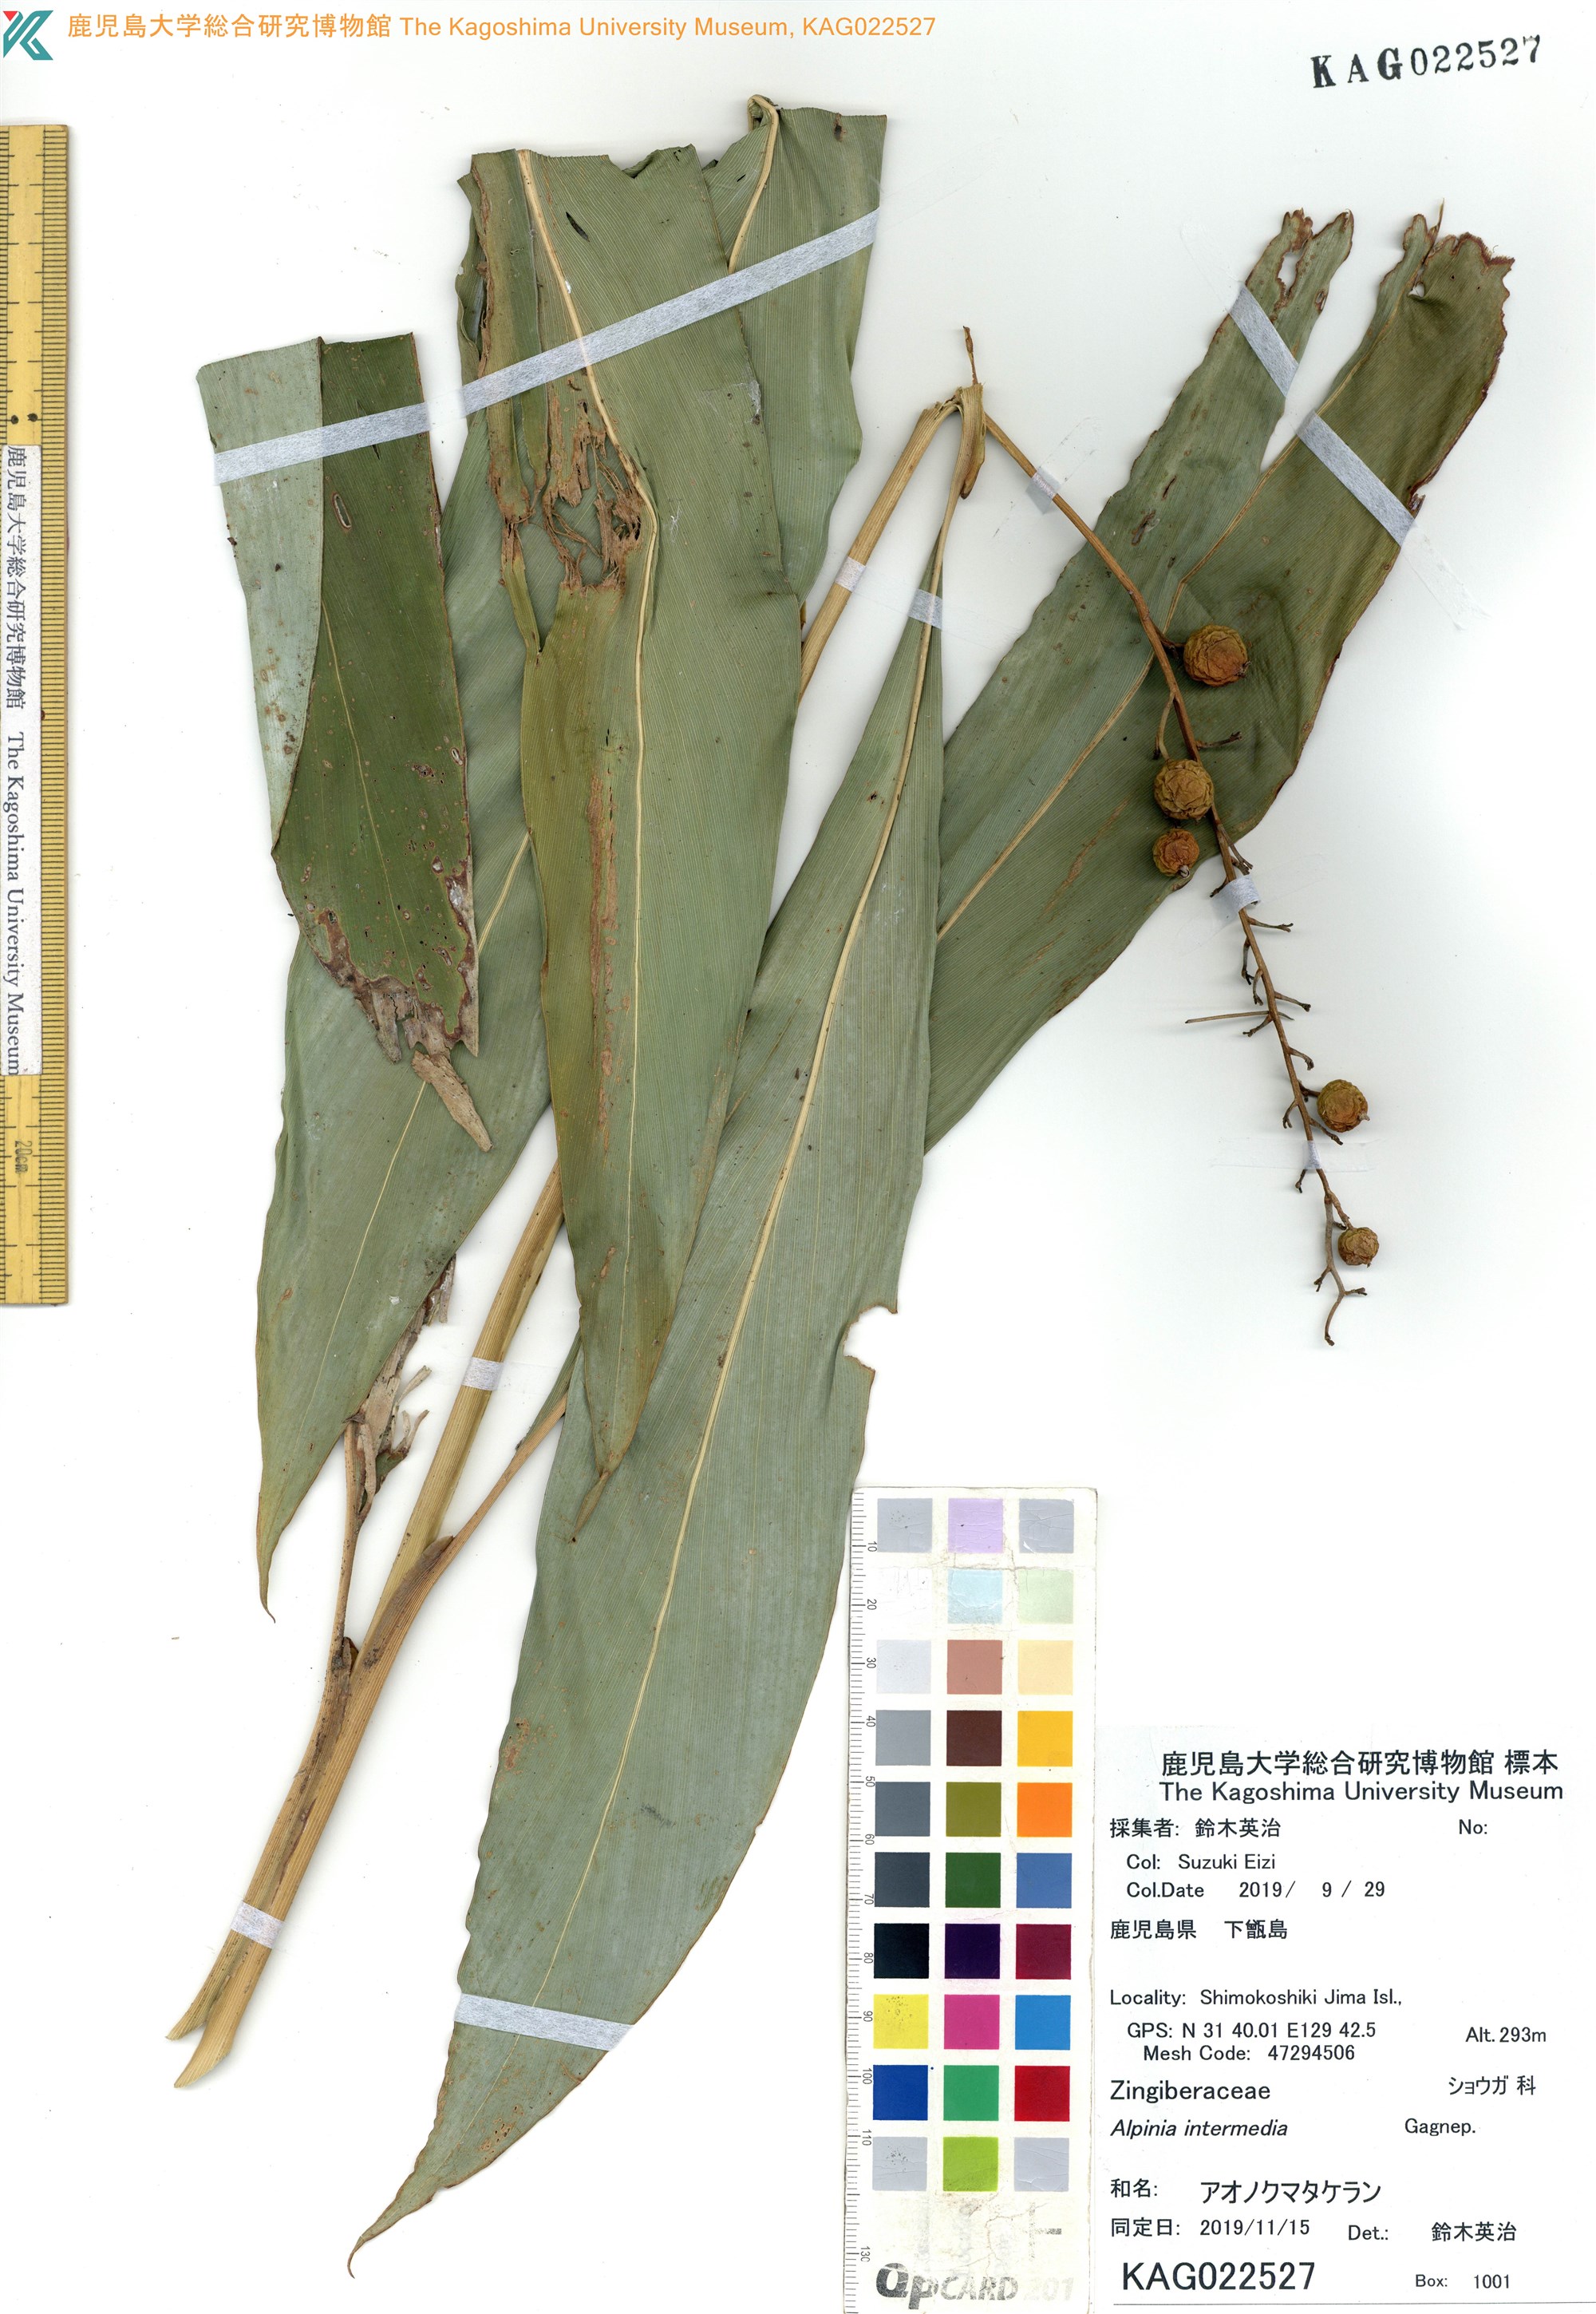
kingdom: Plantae
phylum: Tracheophyta
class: Liliopsida
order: Zingiberales
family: Zingiberaceae
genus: Alpinia
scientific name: Alpinia intermedia
